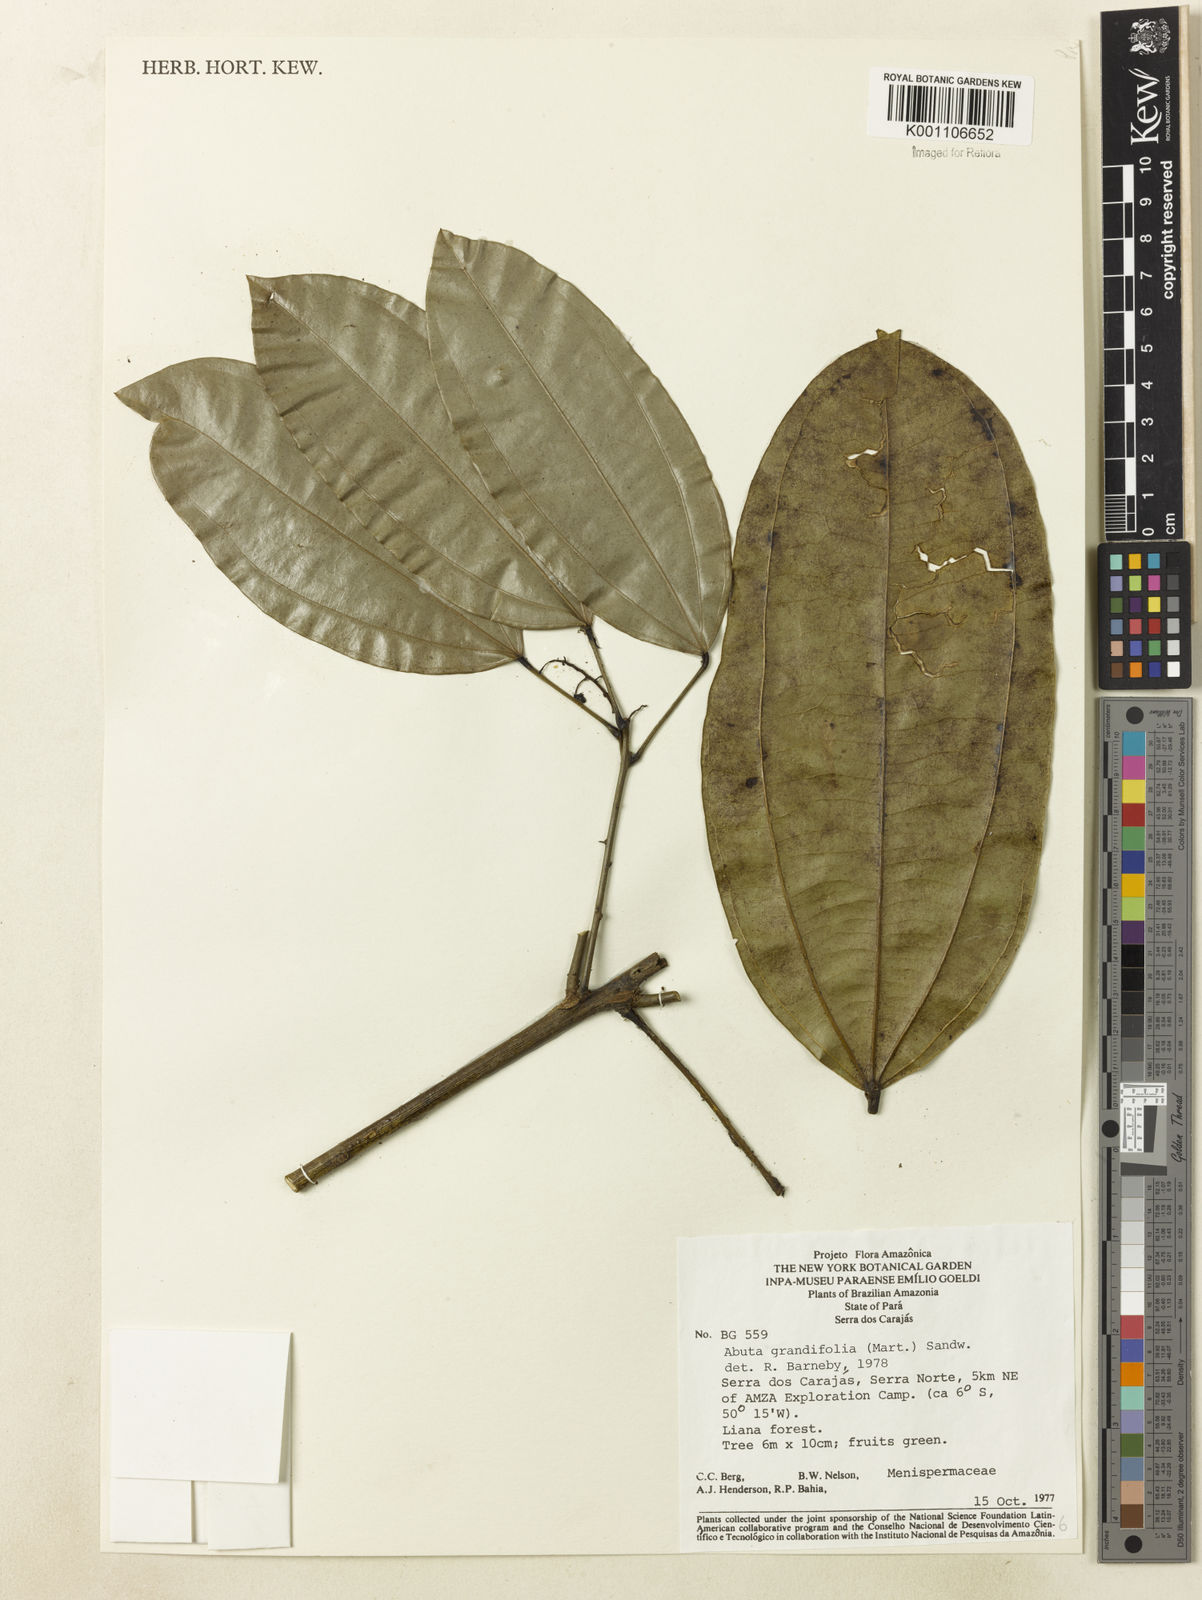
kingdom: Plantae
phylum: Tracheophyta
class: Magnoliopsida
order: Ranunculales
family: Menispermaceae
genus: Abuta
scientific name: Abuta grandifolia
